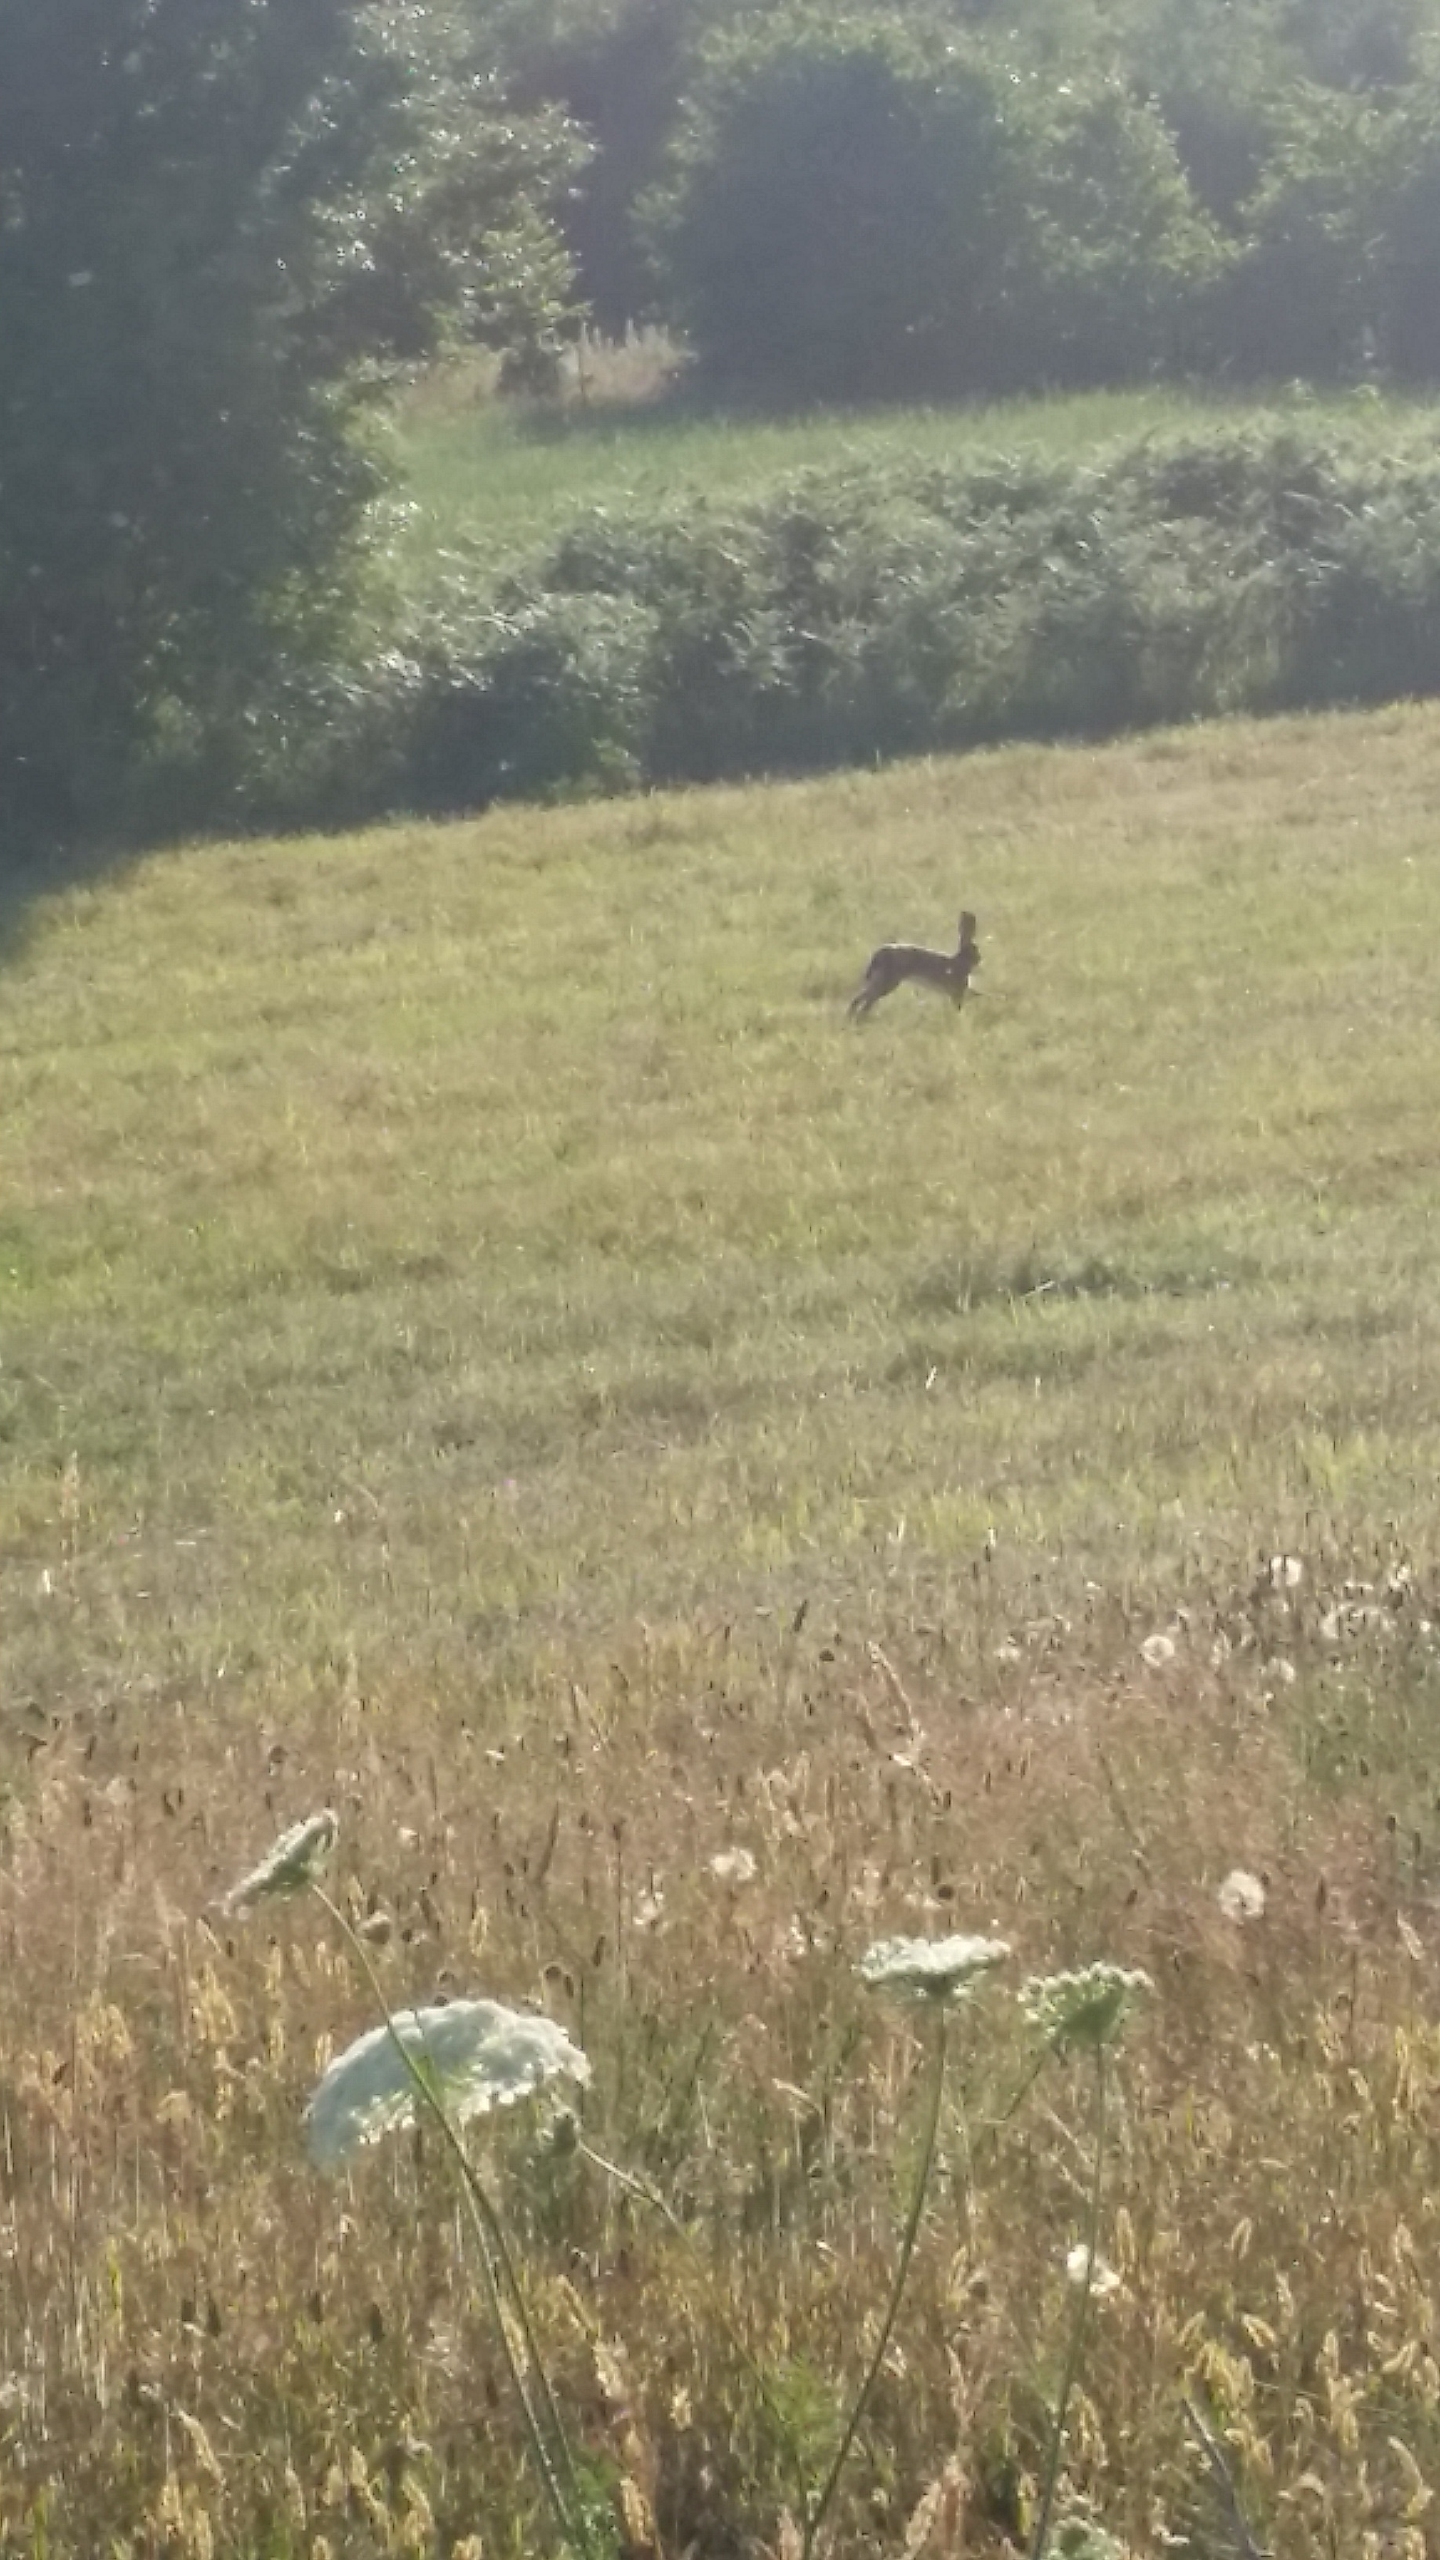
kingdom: Animalia
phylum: Chordata
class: Mammalia
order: Lagomorpha
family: Leporidae
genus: Lepus
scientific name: Lepus europaeus
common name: Hare
